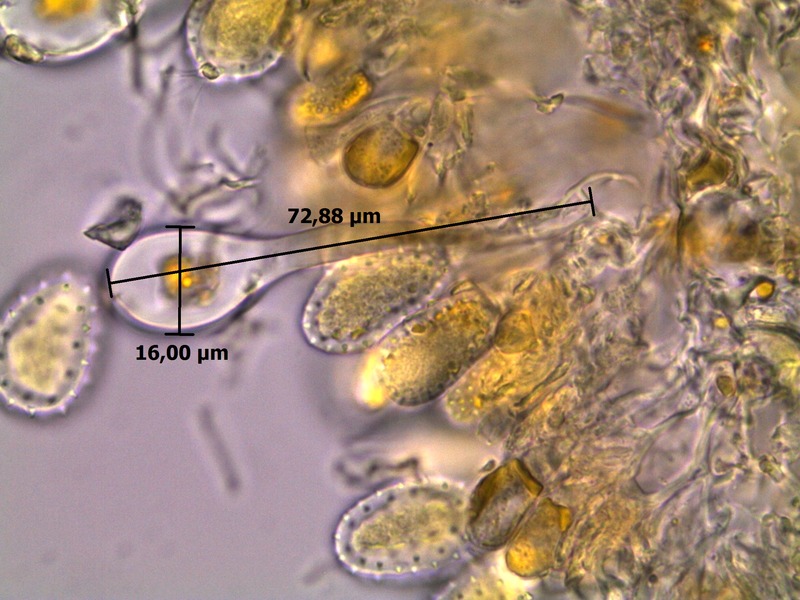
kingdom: Fungi
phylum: Basidiomycota
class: Pucciniomycetes
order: Pucciniales
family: Melampsoraceae
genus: Melampsora
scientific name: Melampsora magnusiana
